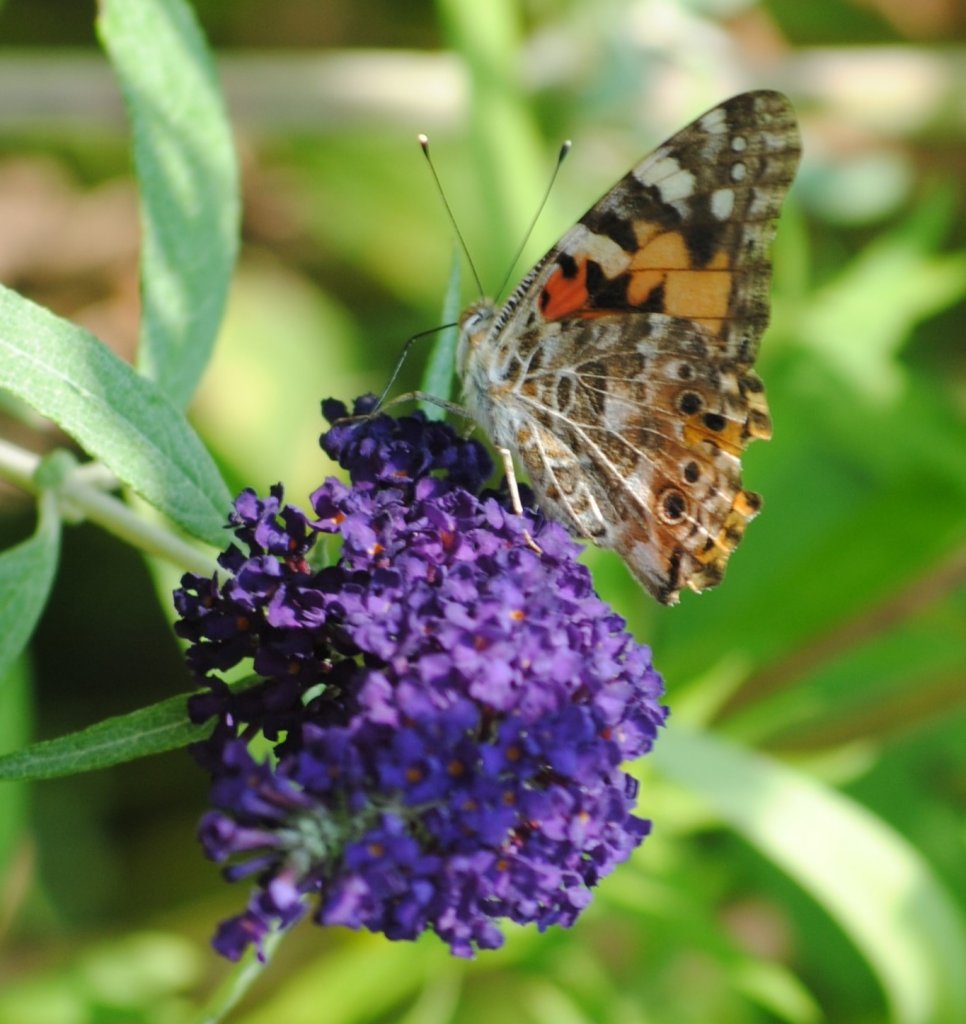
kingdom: Animalia
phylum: Arthropoda
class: Insecta
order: Lepidoptera
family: Nymphalidae
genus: Vanessa
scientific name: Vanessa cardui
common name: Painted Lady
